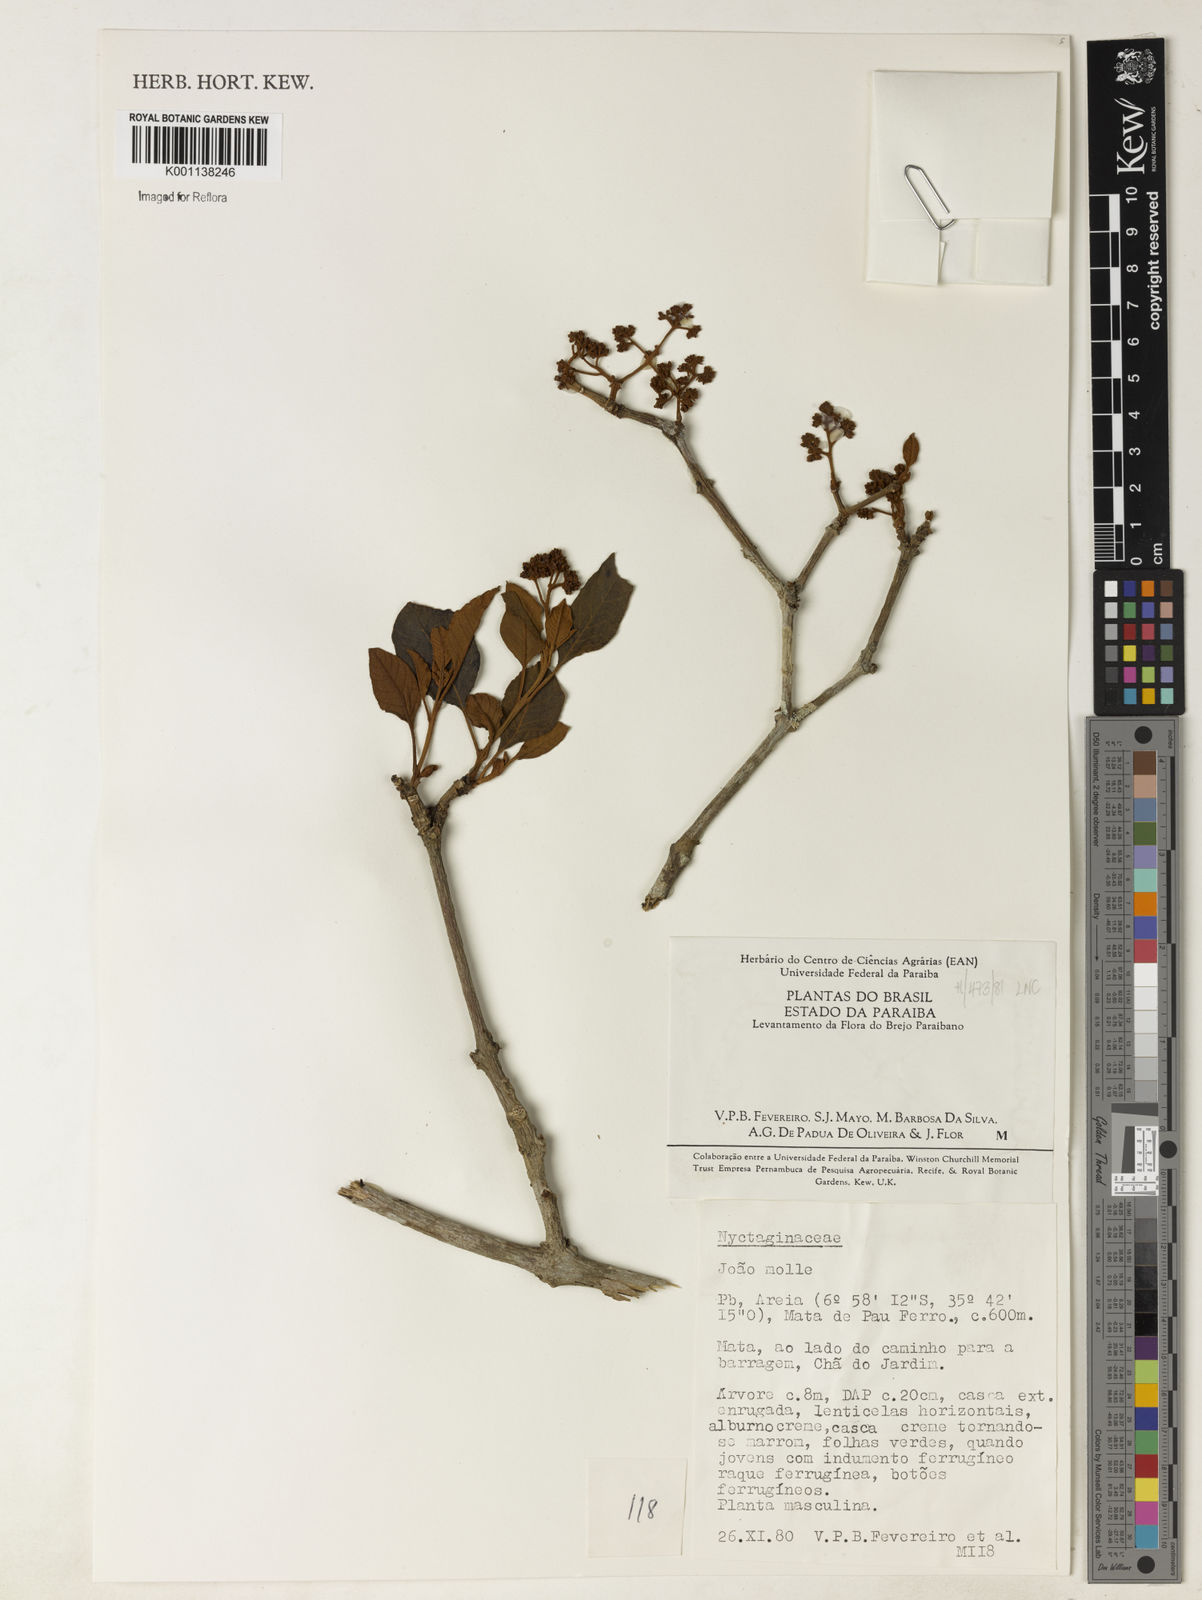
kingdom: Plantae
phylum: Tracheophyta
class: Magnoliopsida
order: Caryophyllales
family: Nyctaginaceae
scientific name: Nyctaginaceae
